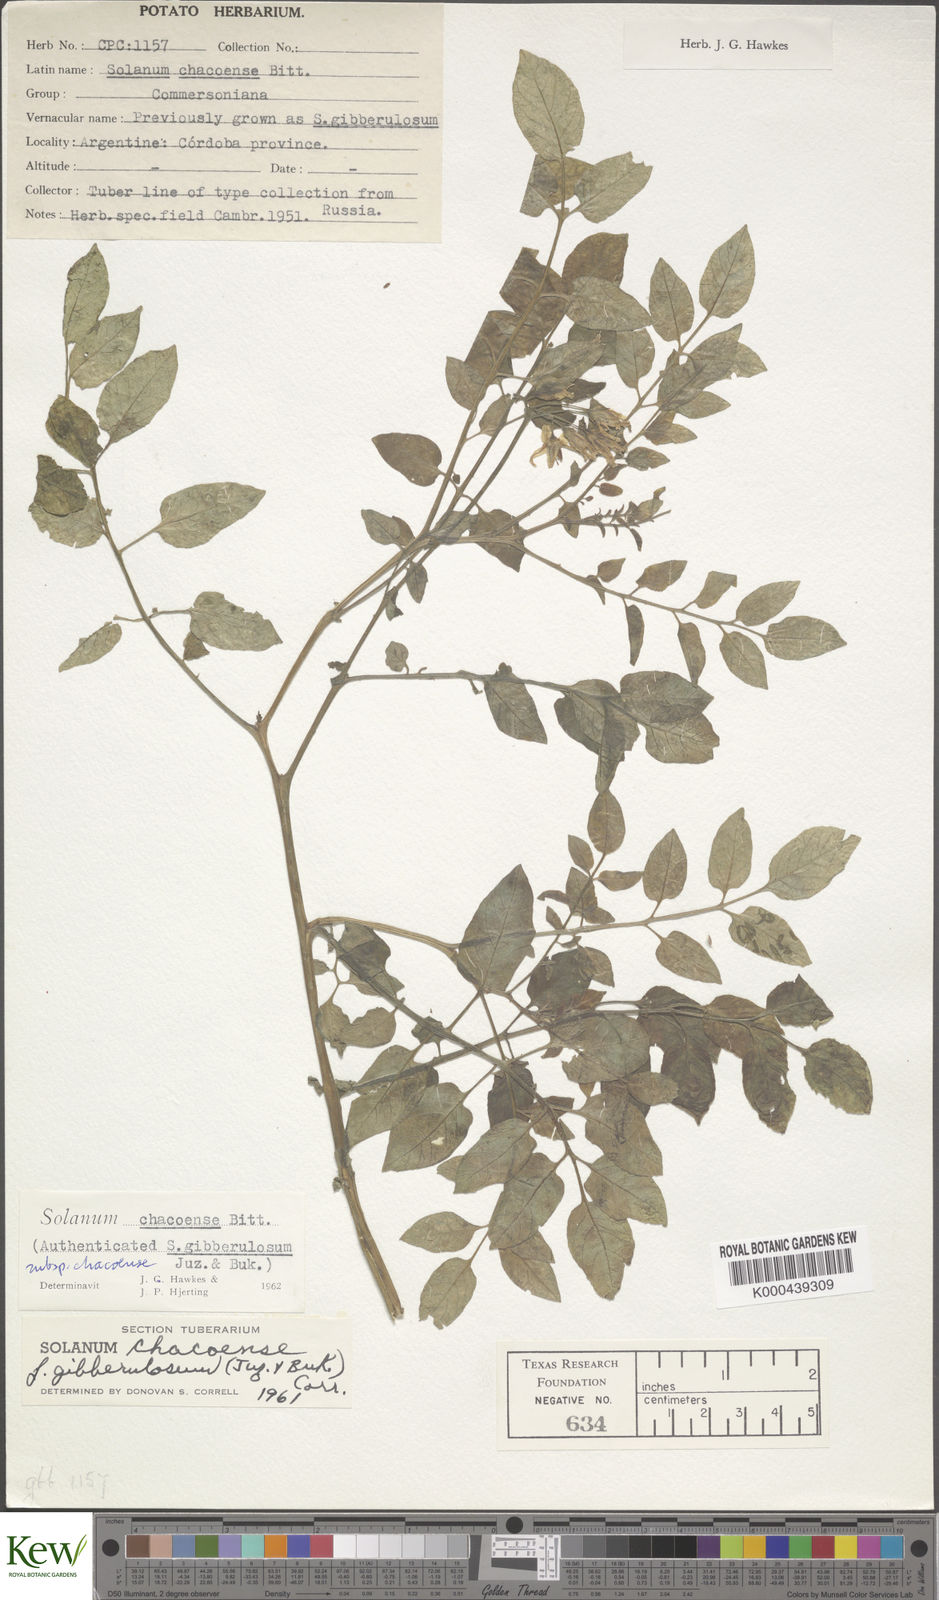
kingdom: Plantae
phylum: Tracheophyta
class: Magnoliopsida
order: Solanales
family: Solanaceae
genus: Solanum
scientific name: Solanum chacoense
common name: Chaco potato
